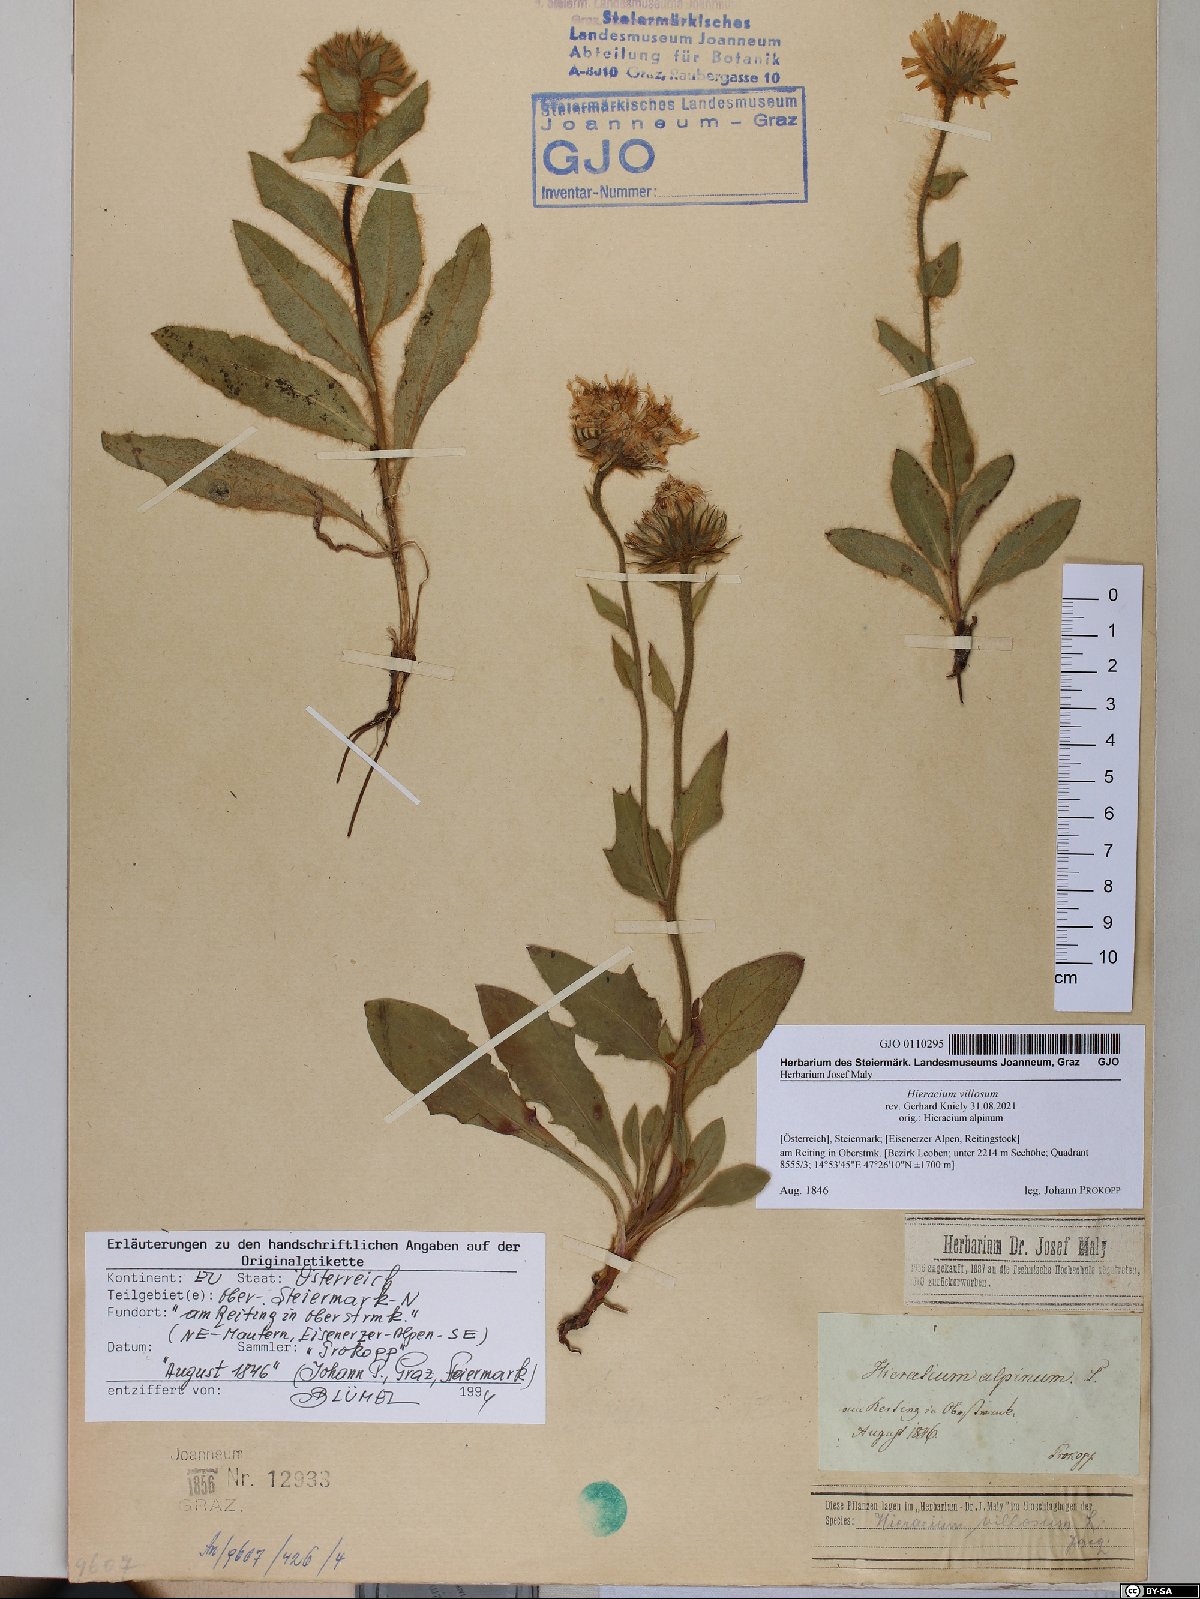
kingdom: Plantae
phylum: Tracheophyta
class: Magnoliopsida
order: Asterales
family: Asteraceae
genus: Hieracium
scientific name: Hieracium villosum
